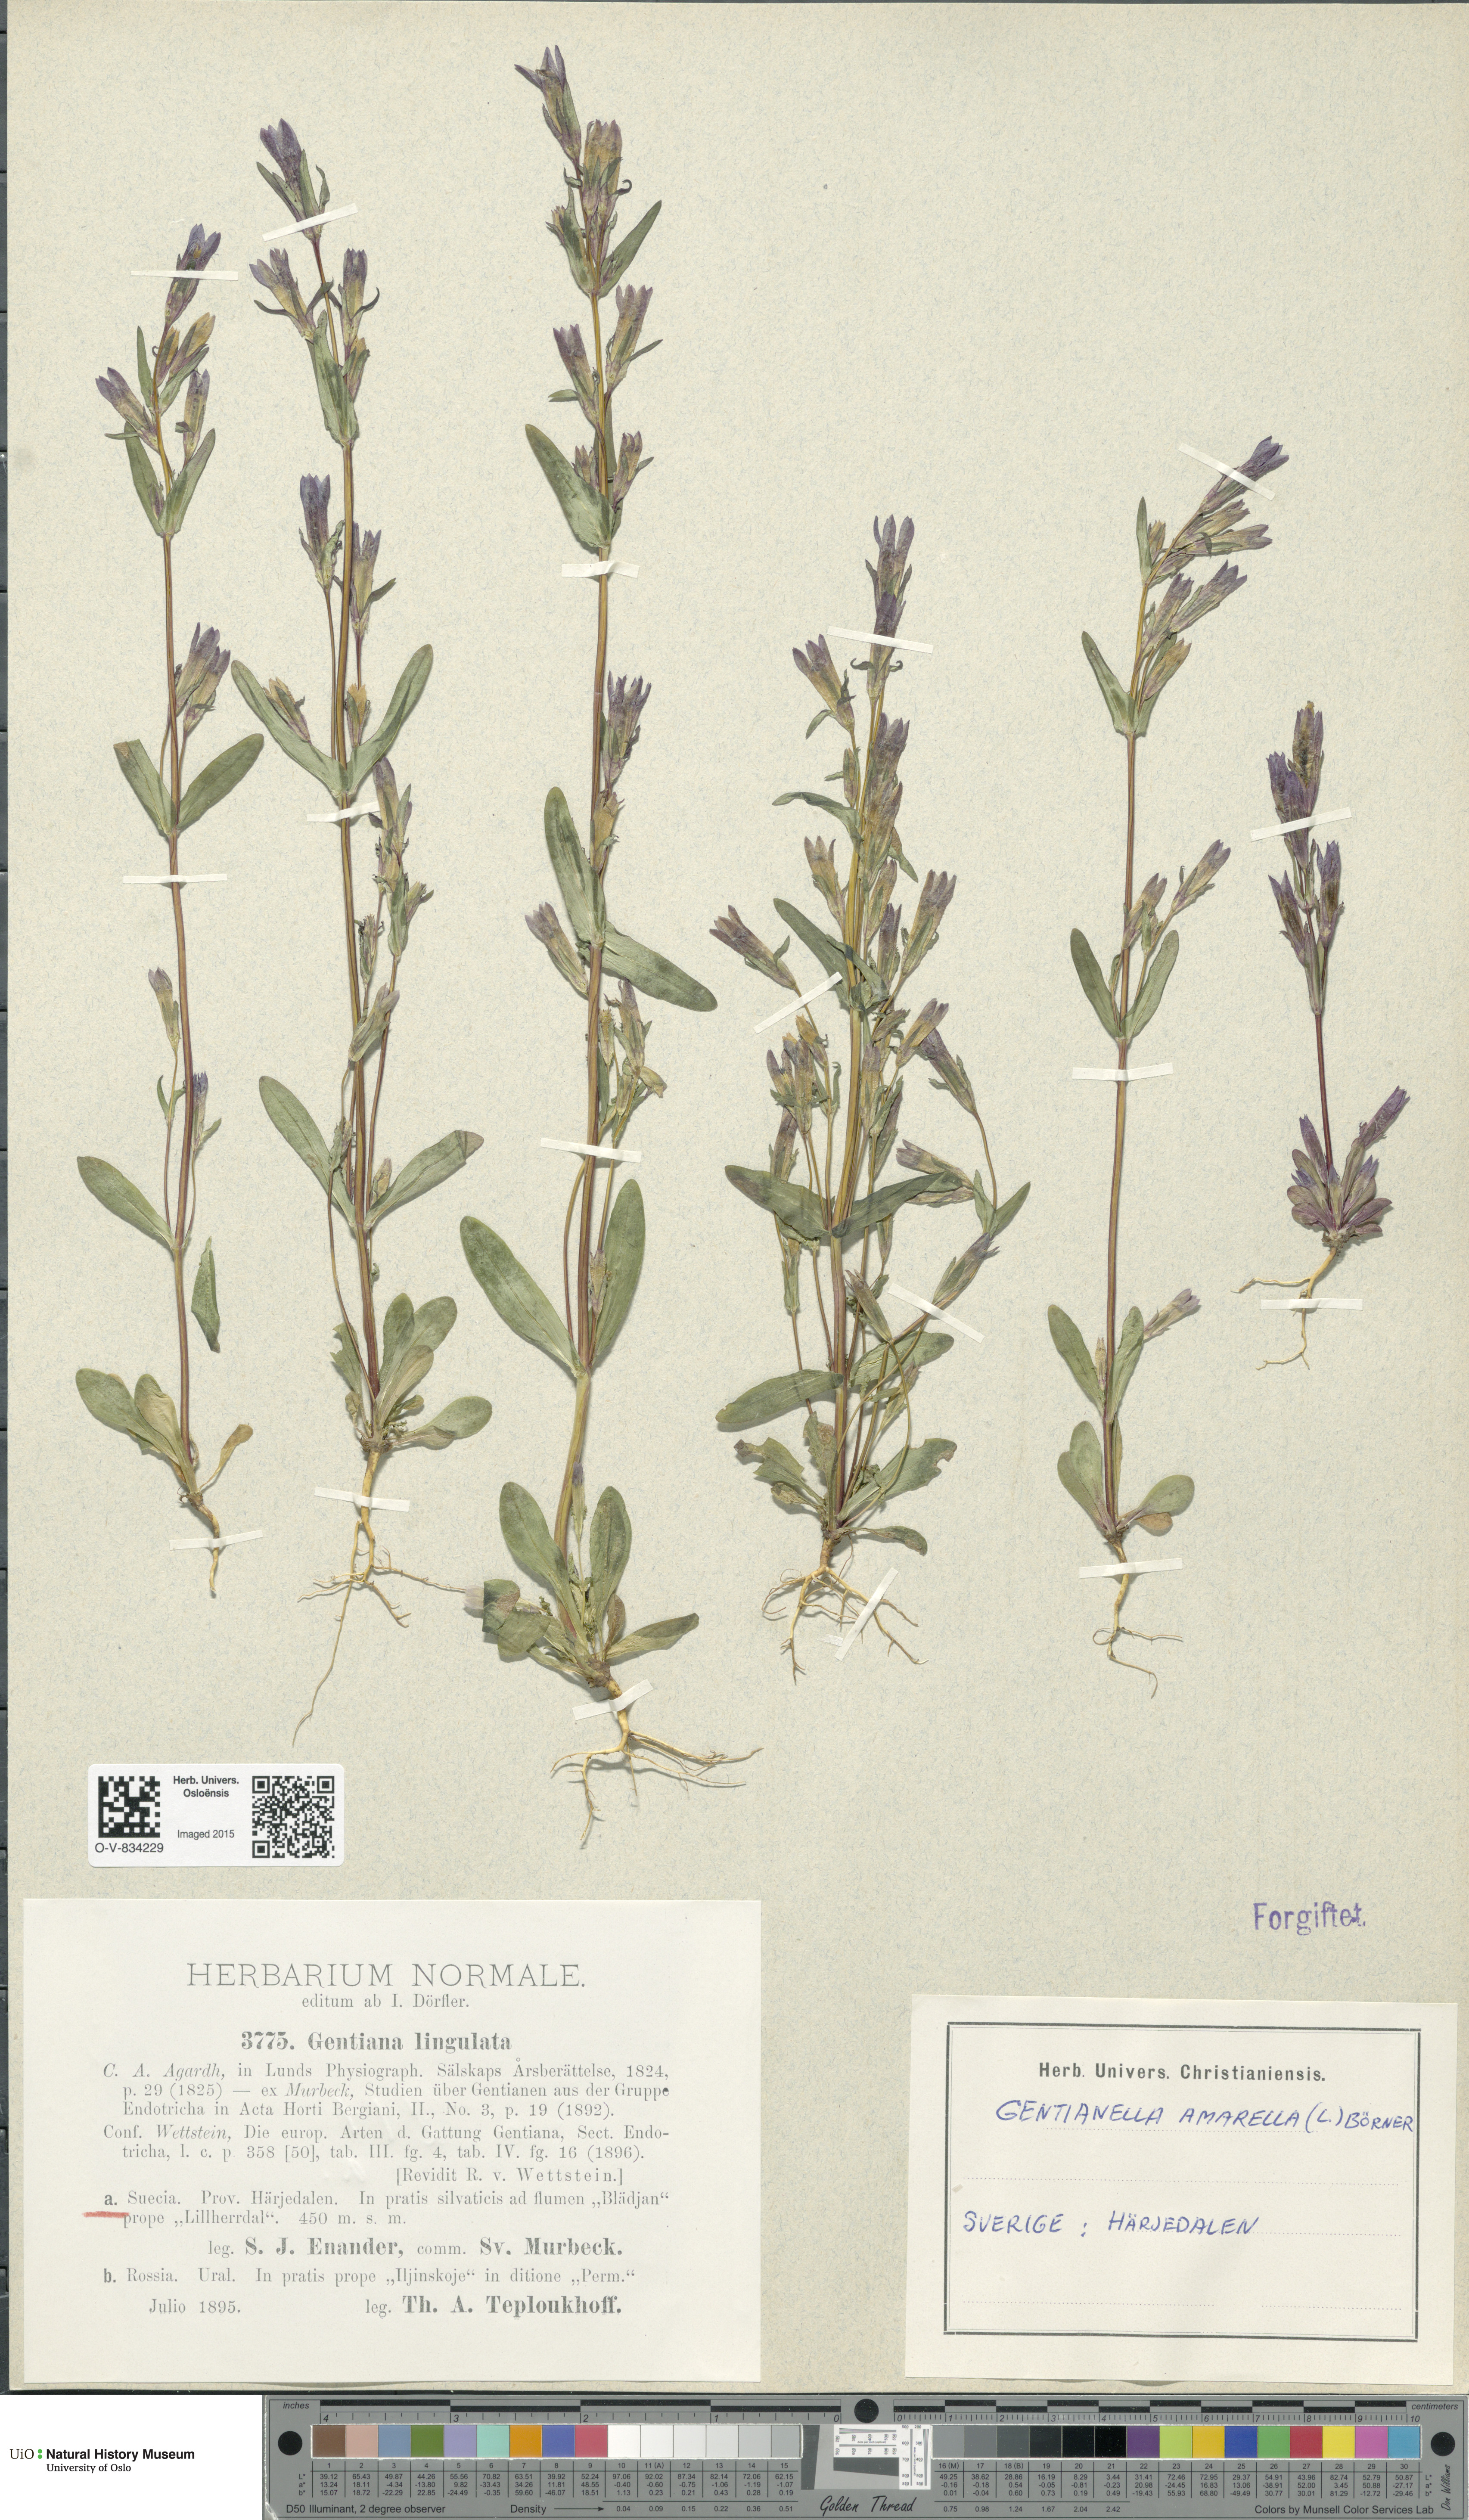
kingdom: Plantae
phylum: Tracheophyta
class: Magnoliopsida
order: Gentianales
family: Gentianaceae
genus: Gentianella
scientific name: Gentianella amarella
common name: Autumn gentian
